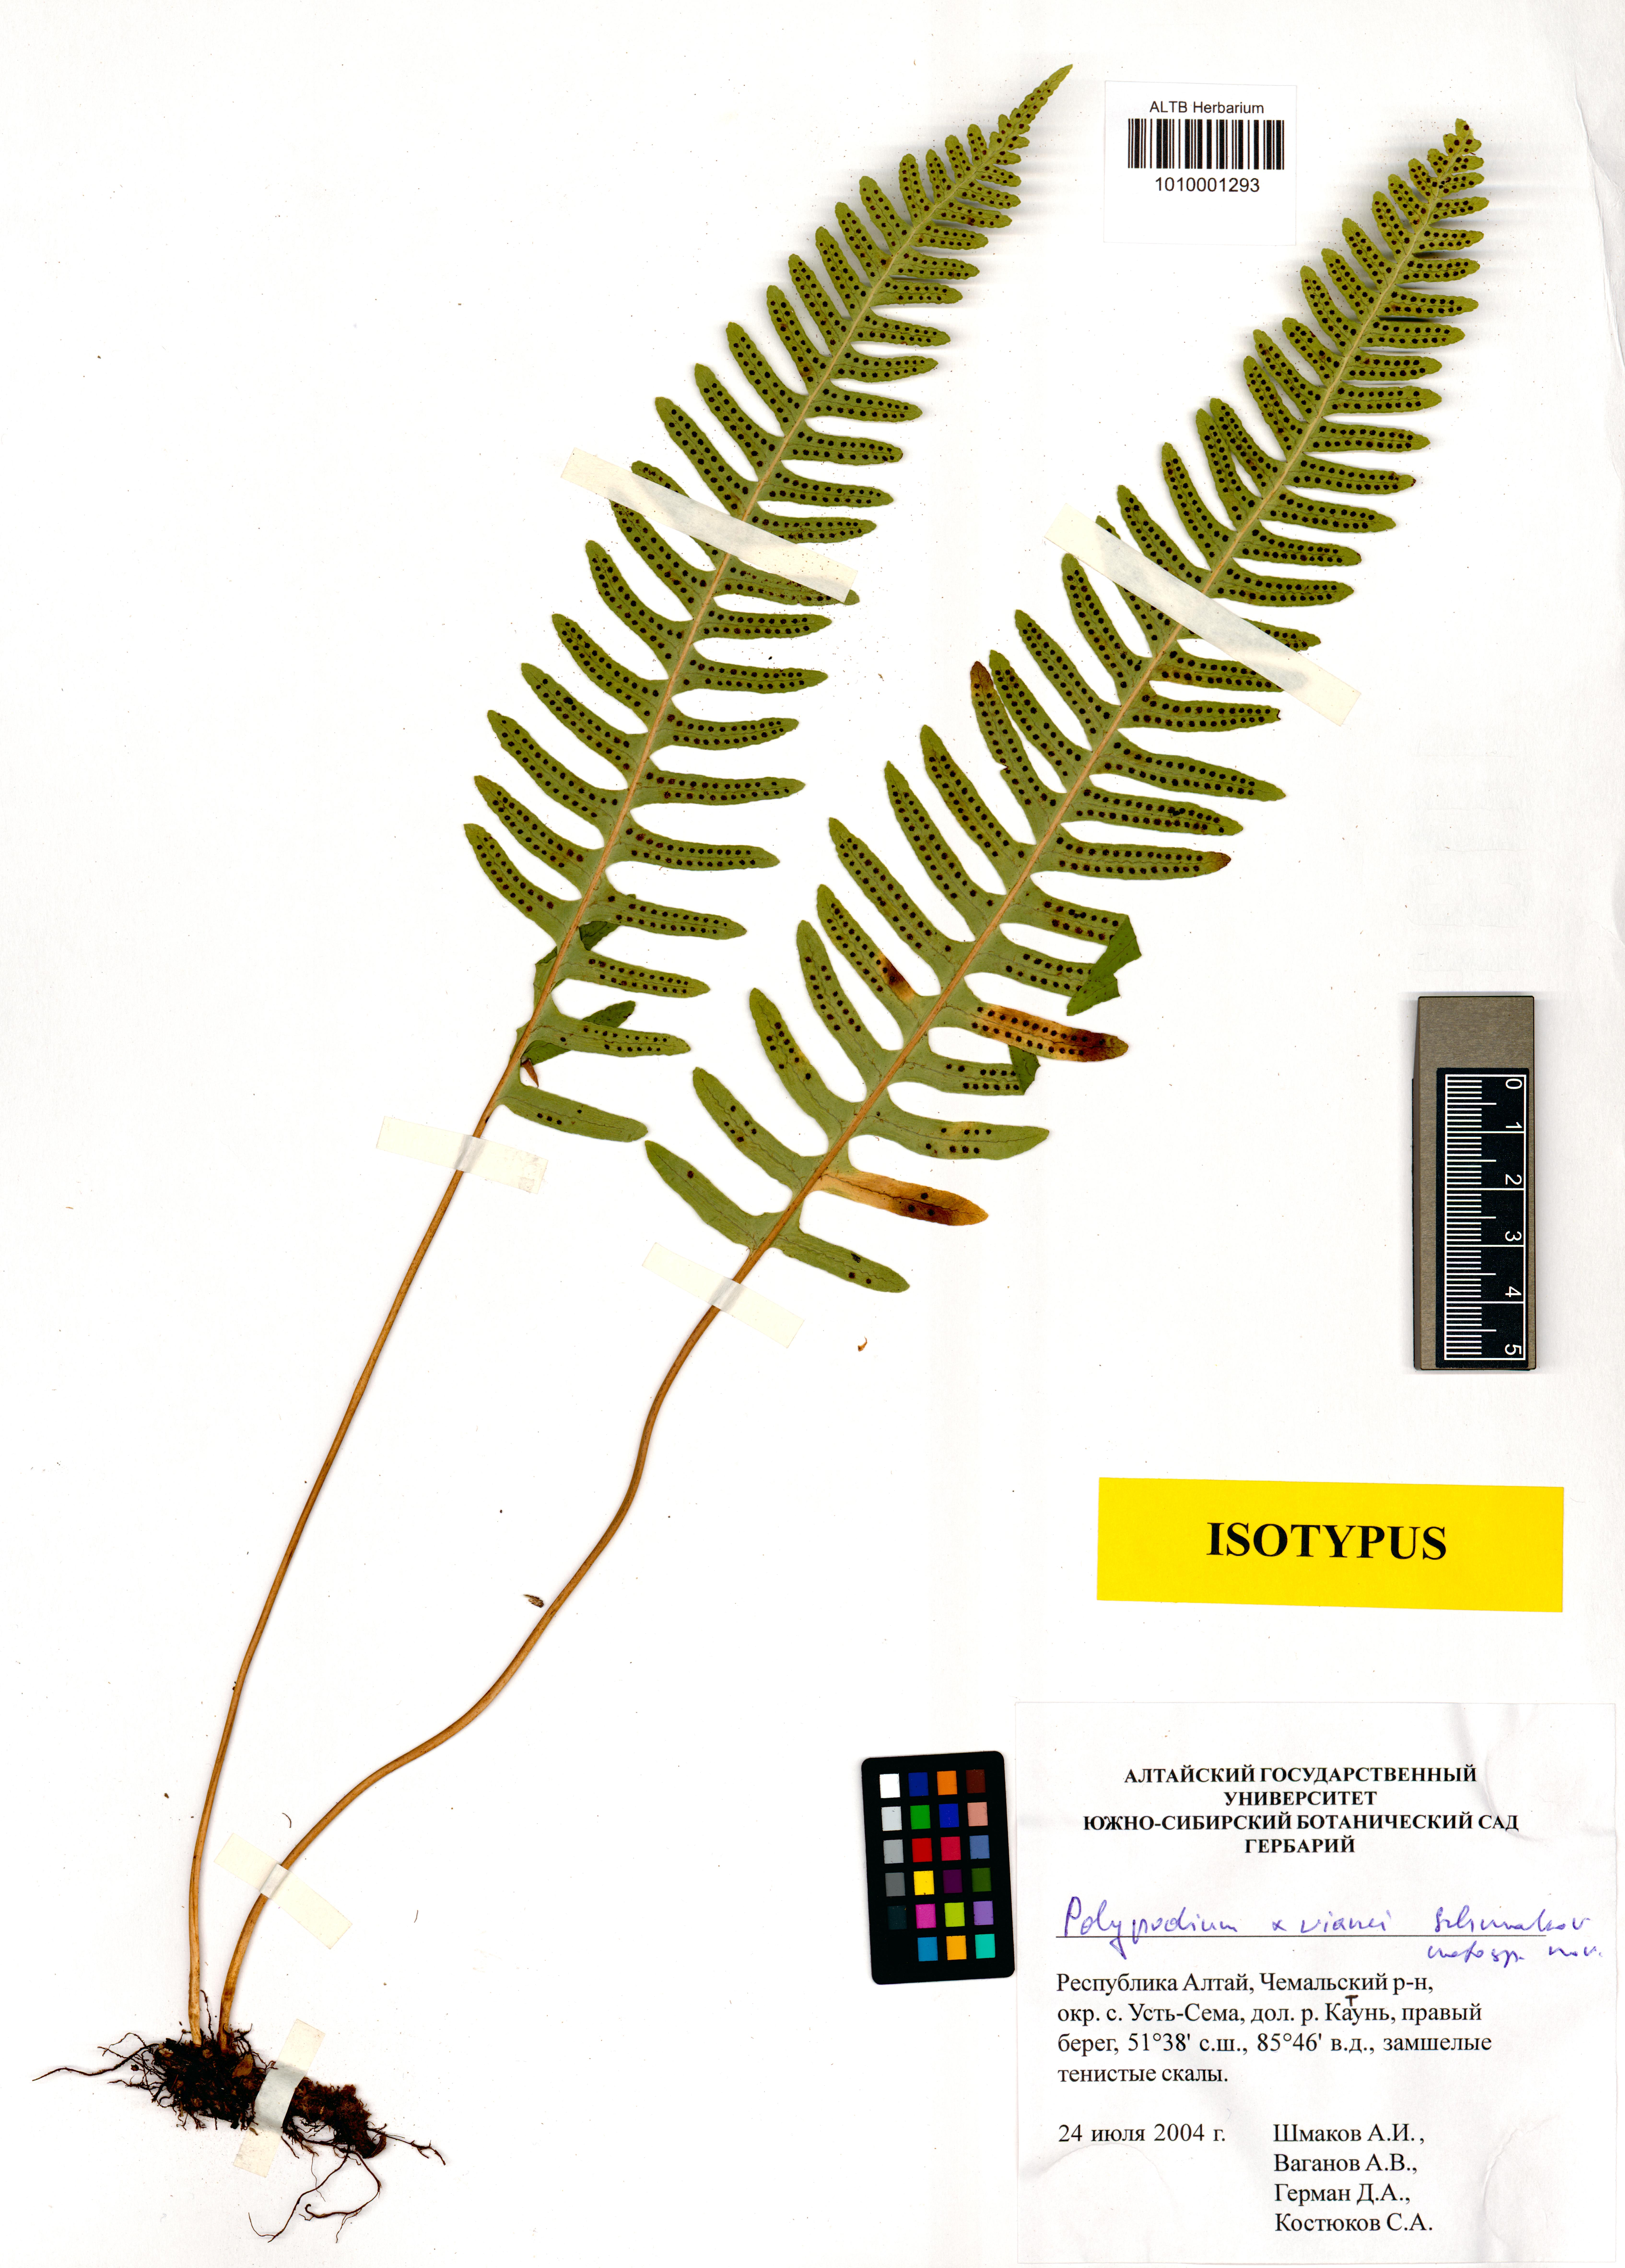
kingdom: Plantae
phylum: Tracheophyta
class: Polypodiopsida
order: Polypodiales
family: Polypodiaceae
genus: Polypodium
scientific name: Polypodium vianei
